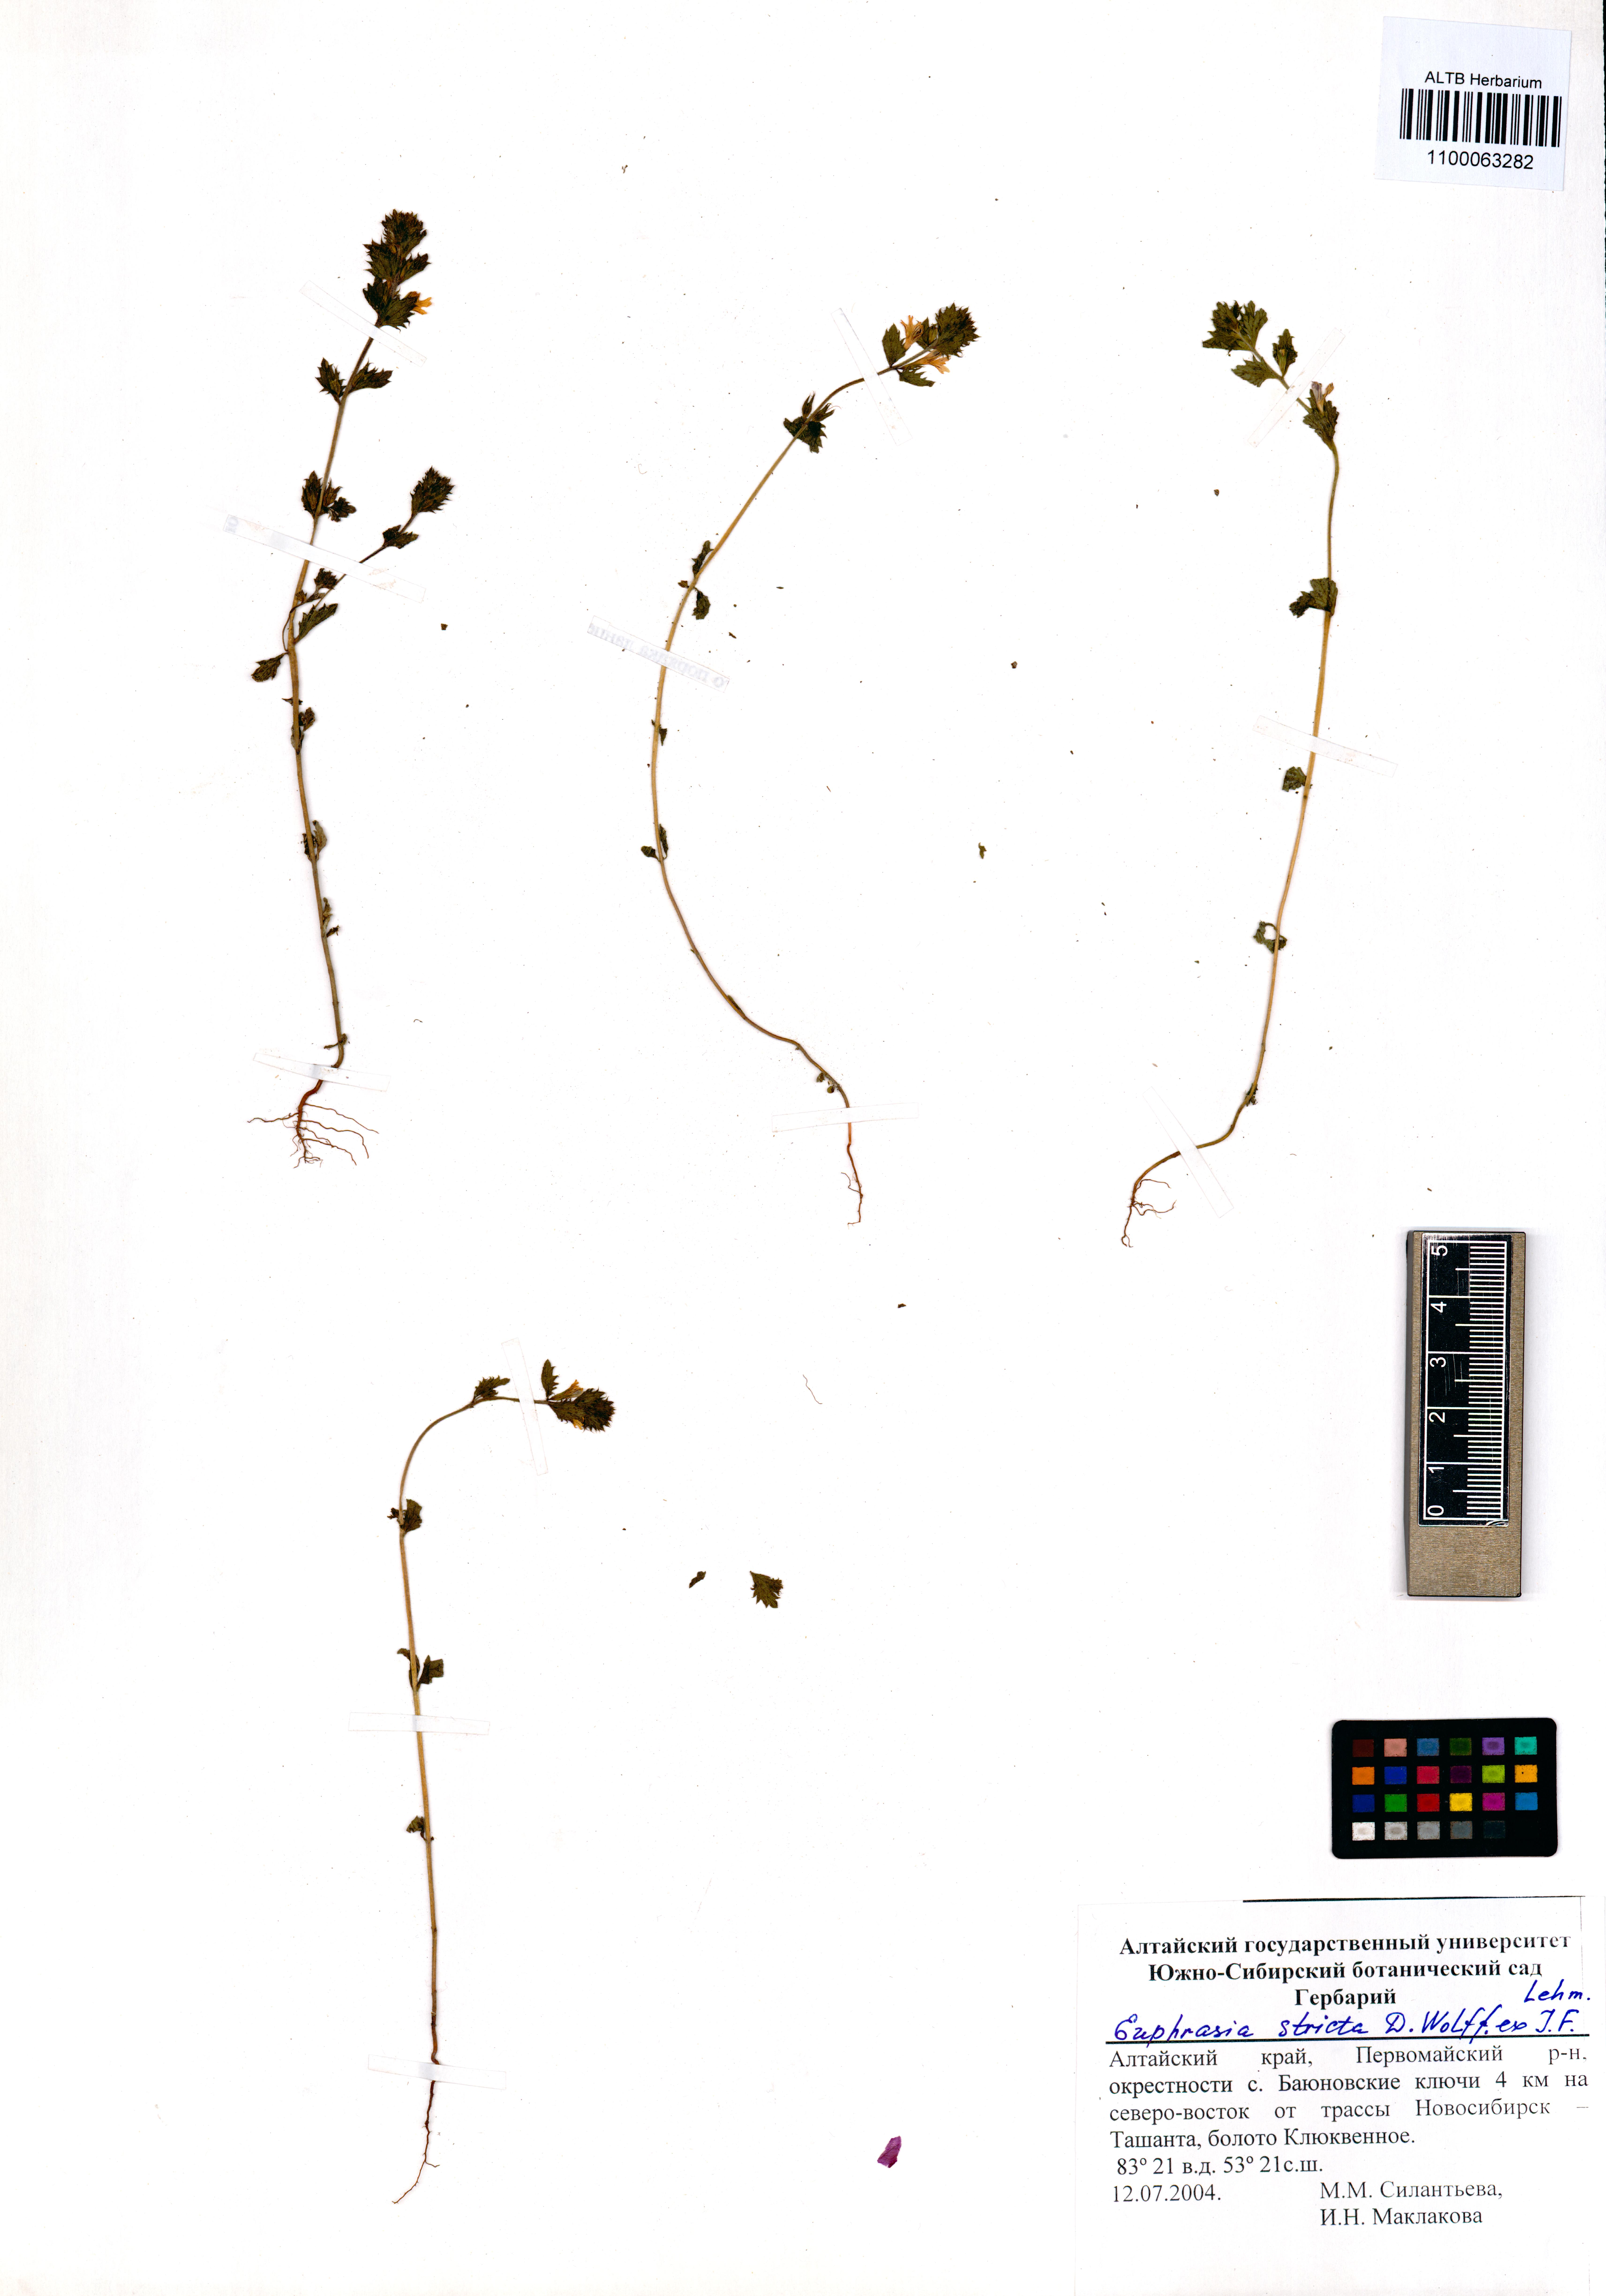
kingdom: Plantae
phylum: Tracheophyta
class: Magnoliopsida
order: Lamiales
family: Orobanchaceae
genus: Euphrasia
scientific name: Euphrasia stricta
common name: Drug eyebright
